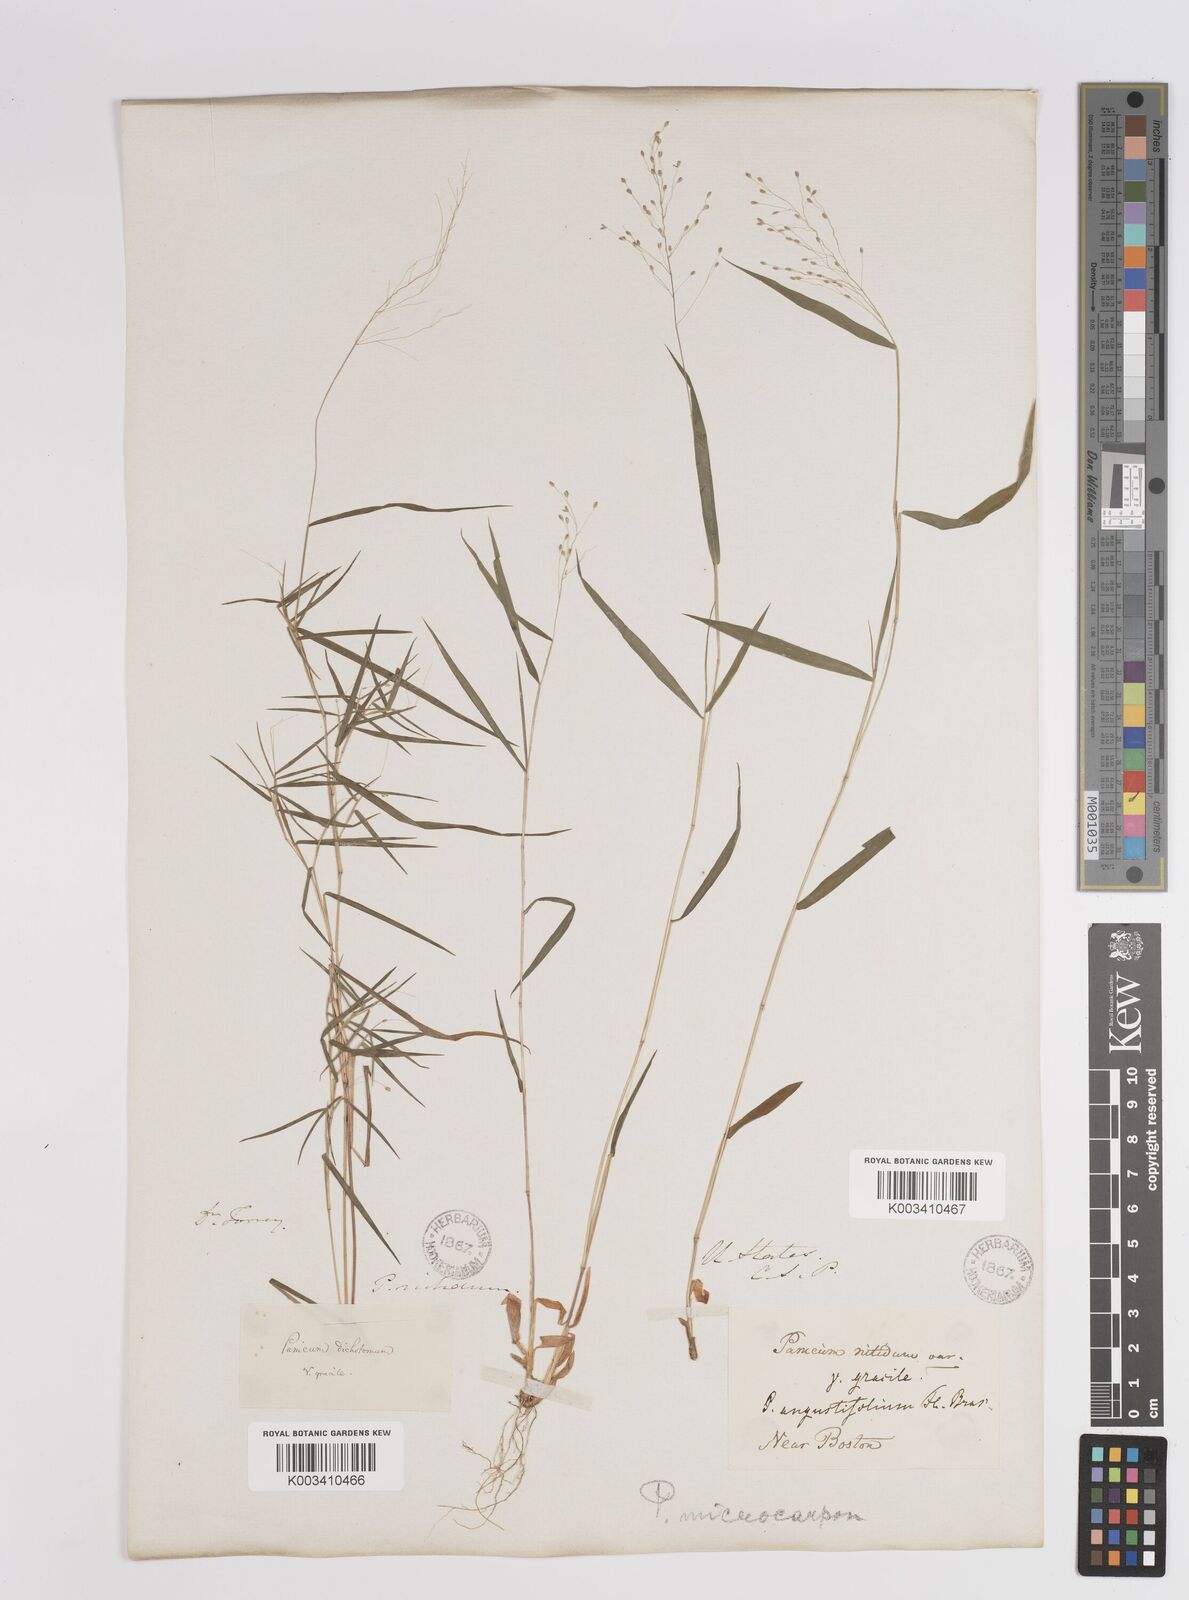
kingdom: Plantae
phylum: Tracheophyta
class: Liliopsida
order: Poales
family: Poaceae
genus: Dichanthelium
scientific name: Dichanthelium polyanthes
